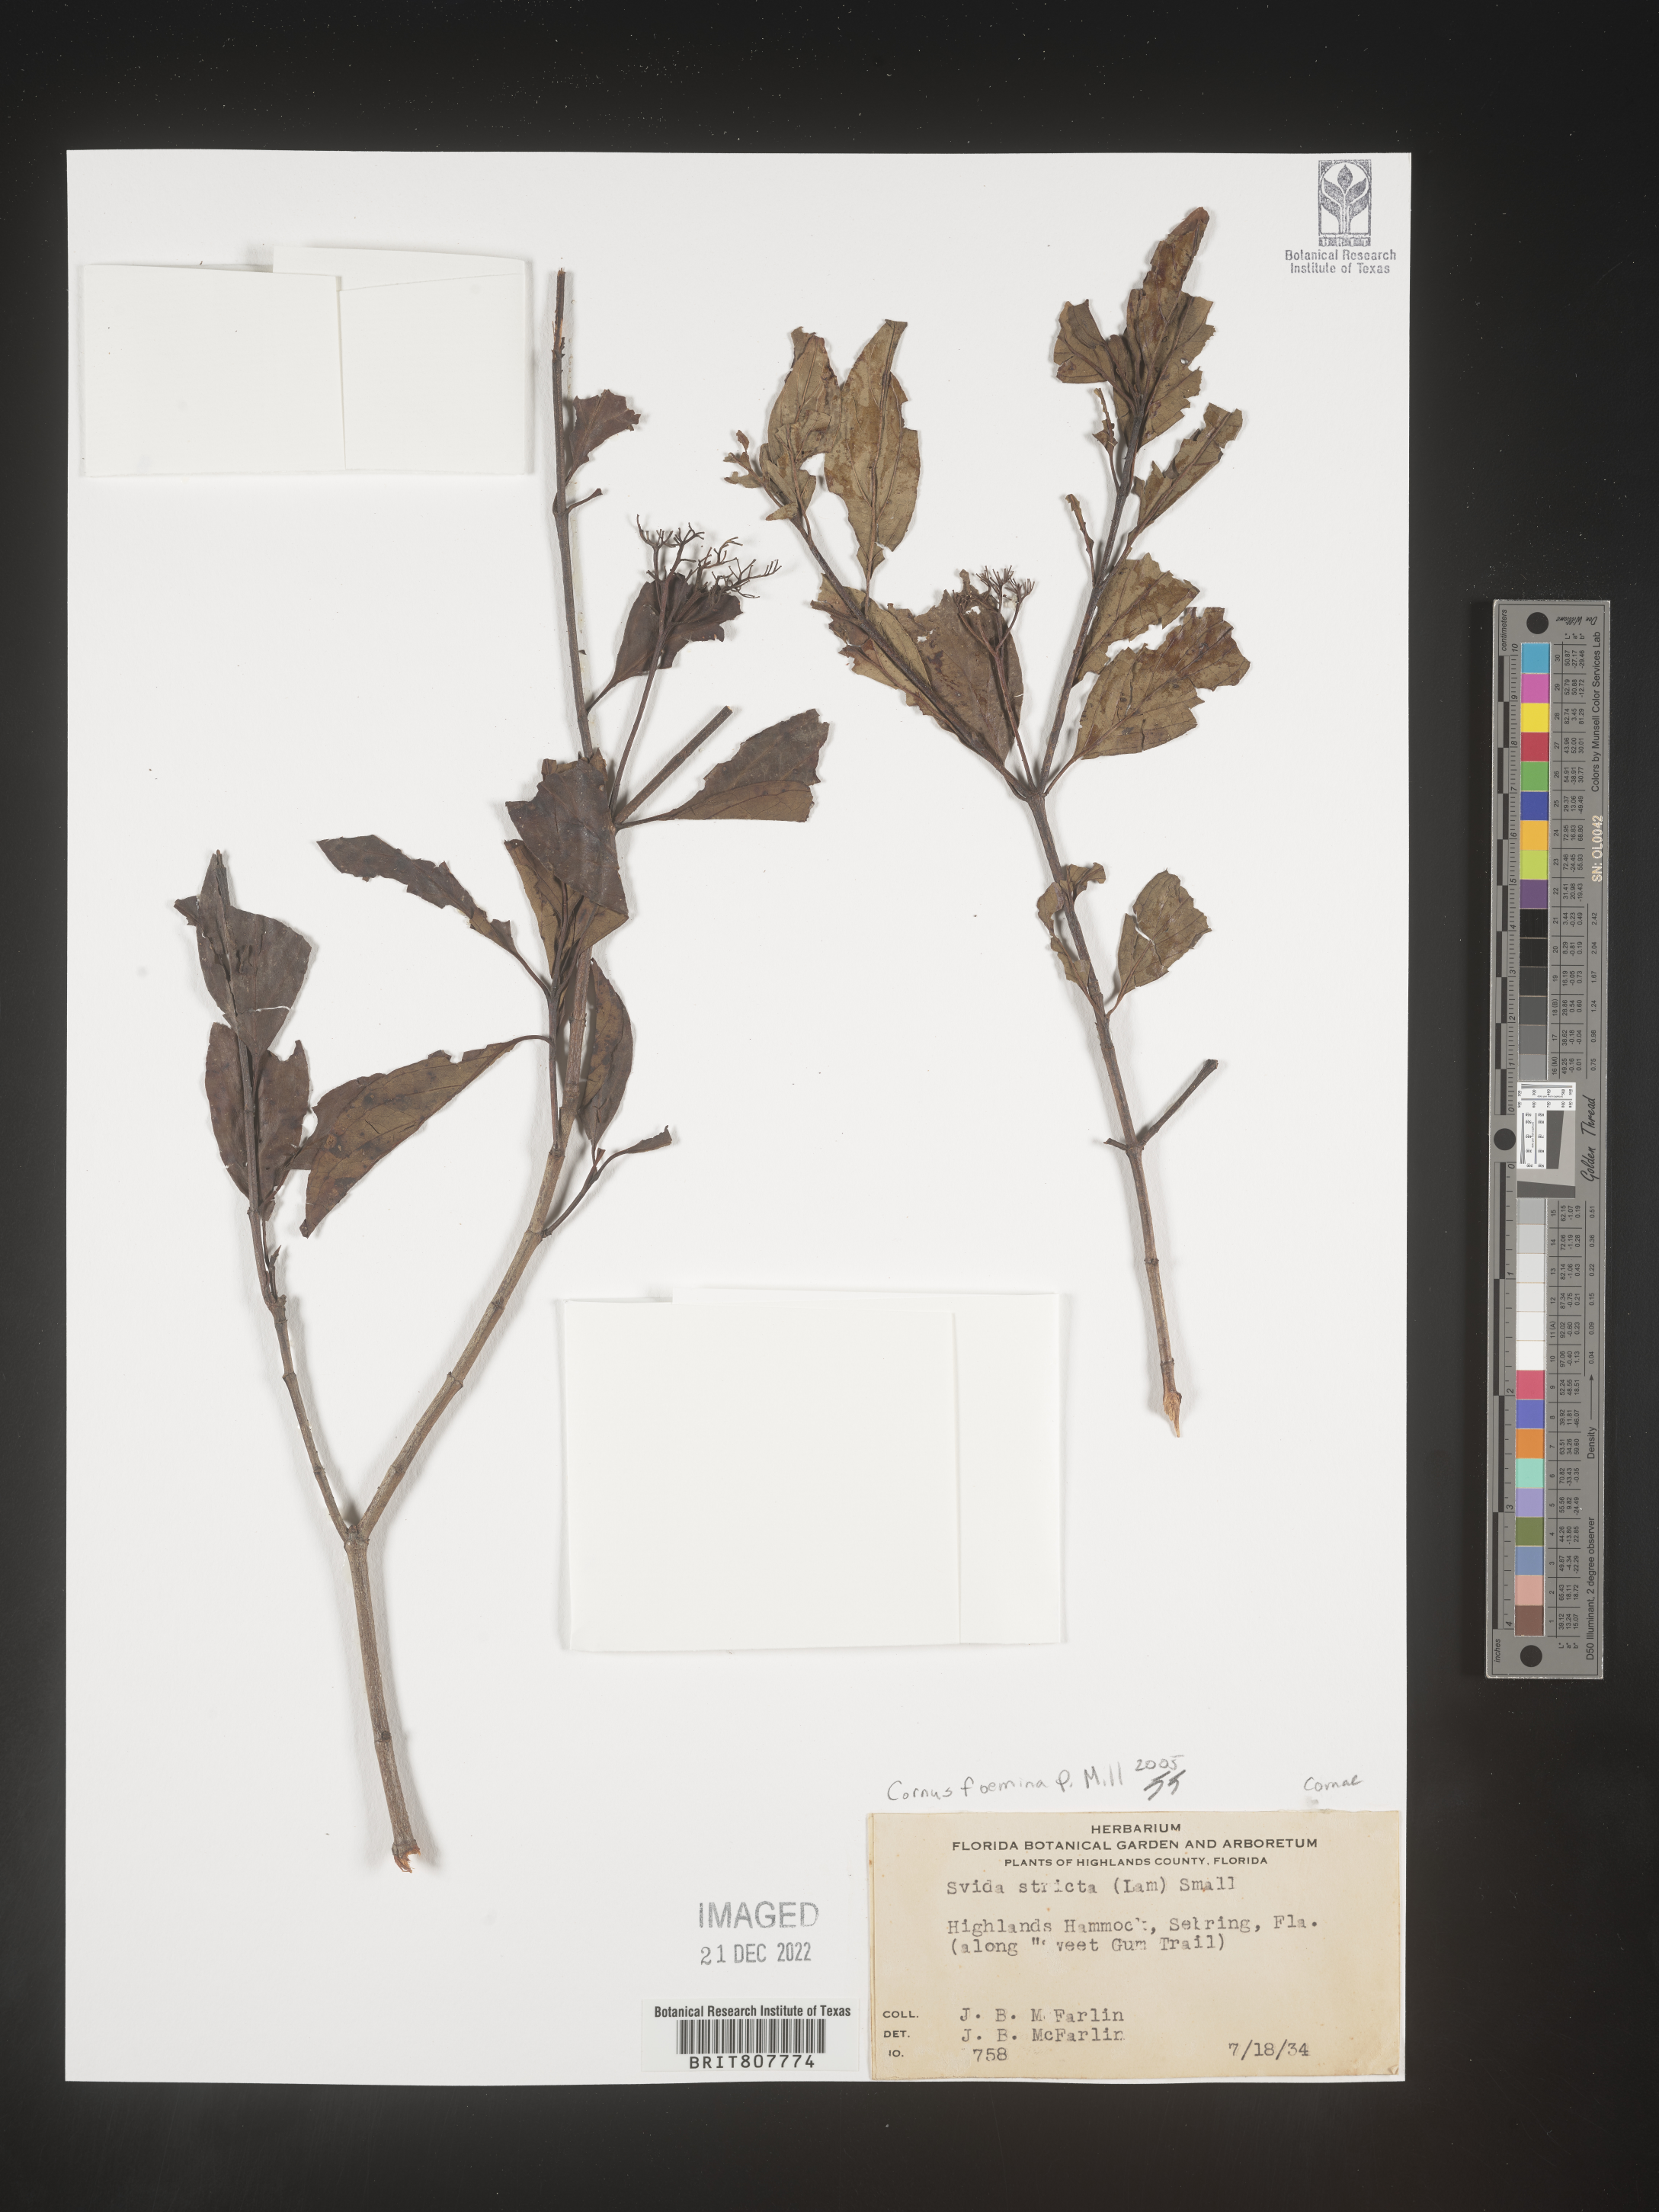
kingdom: Plantae
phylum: Tracheophyta
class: Magnoliopsida
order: Cornales
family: Cornaceae
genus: Cornus
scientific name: Cornus foemina
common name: Swamp dogwood
